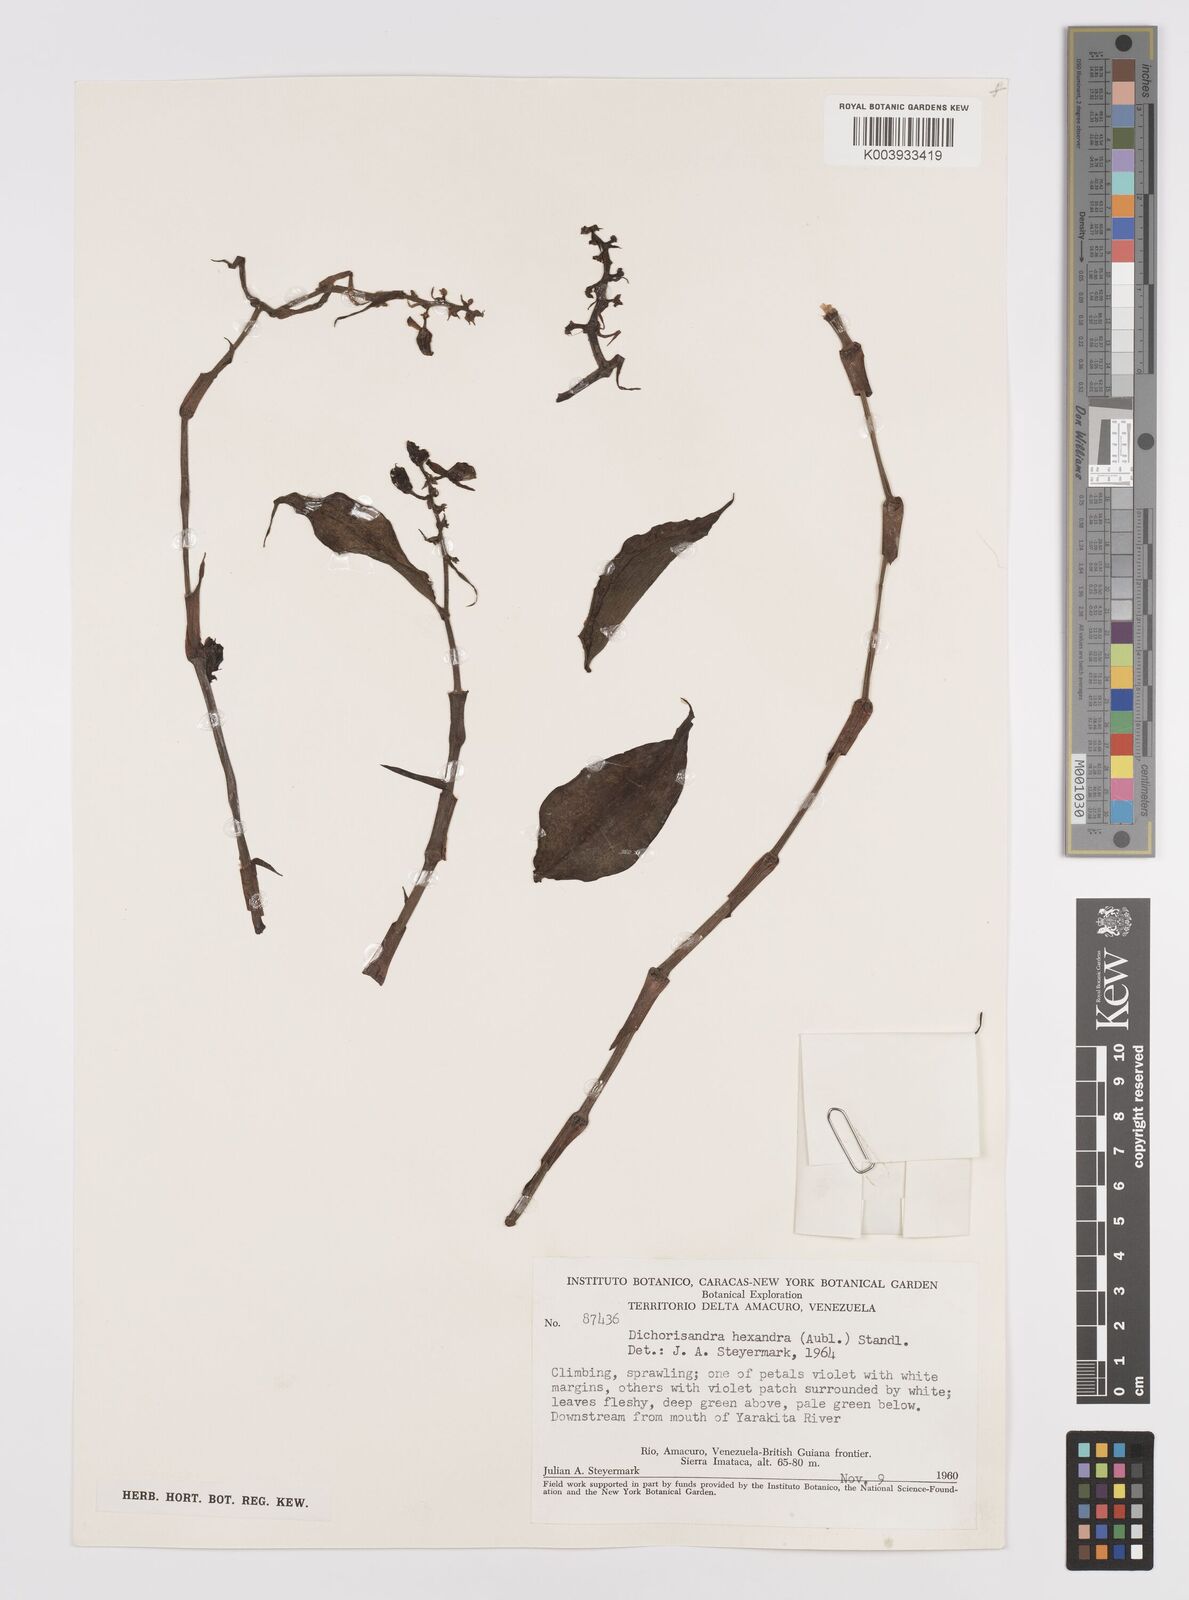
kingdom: Plantae
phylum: Tracheophyta
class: Liliopsida
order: Commelinales
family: Commelinaceae
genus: Dichorisandra
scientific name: Dichorisandra hexandra
